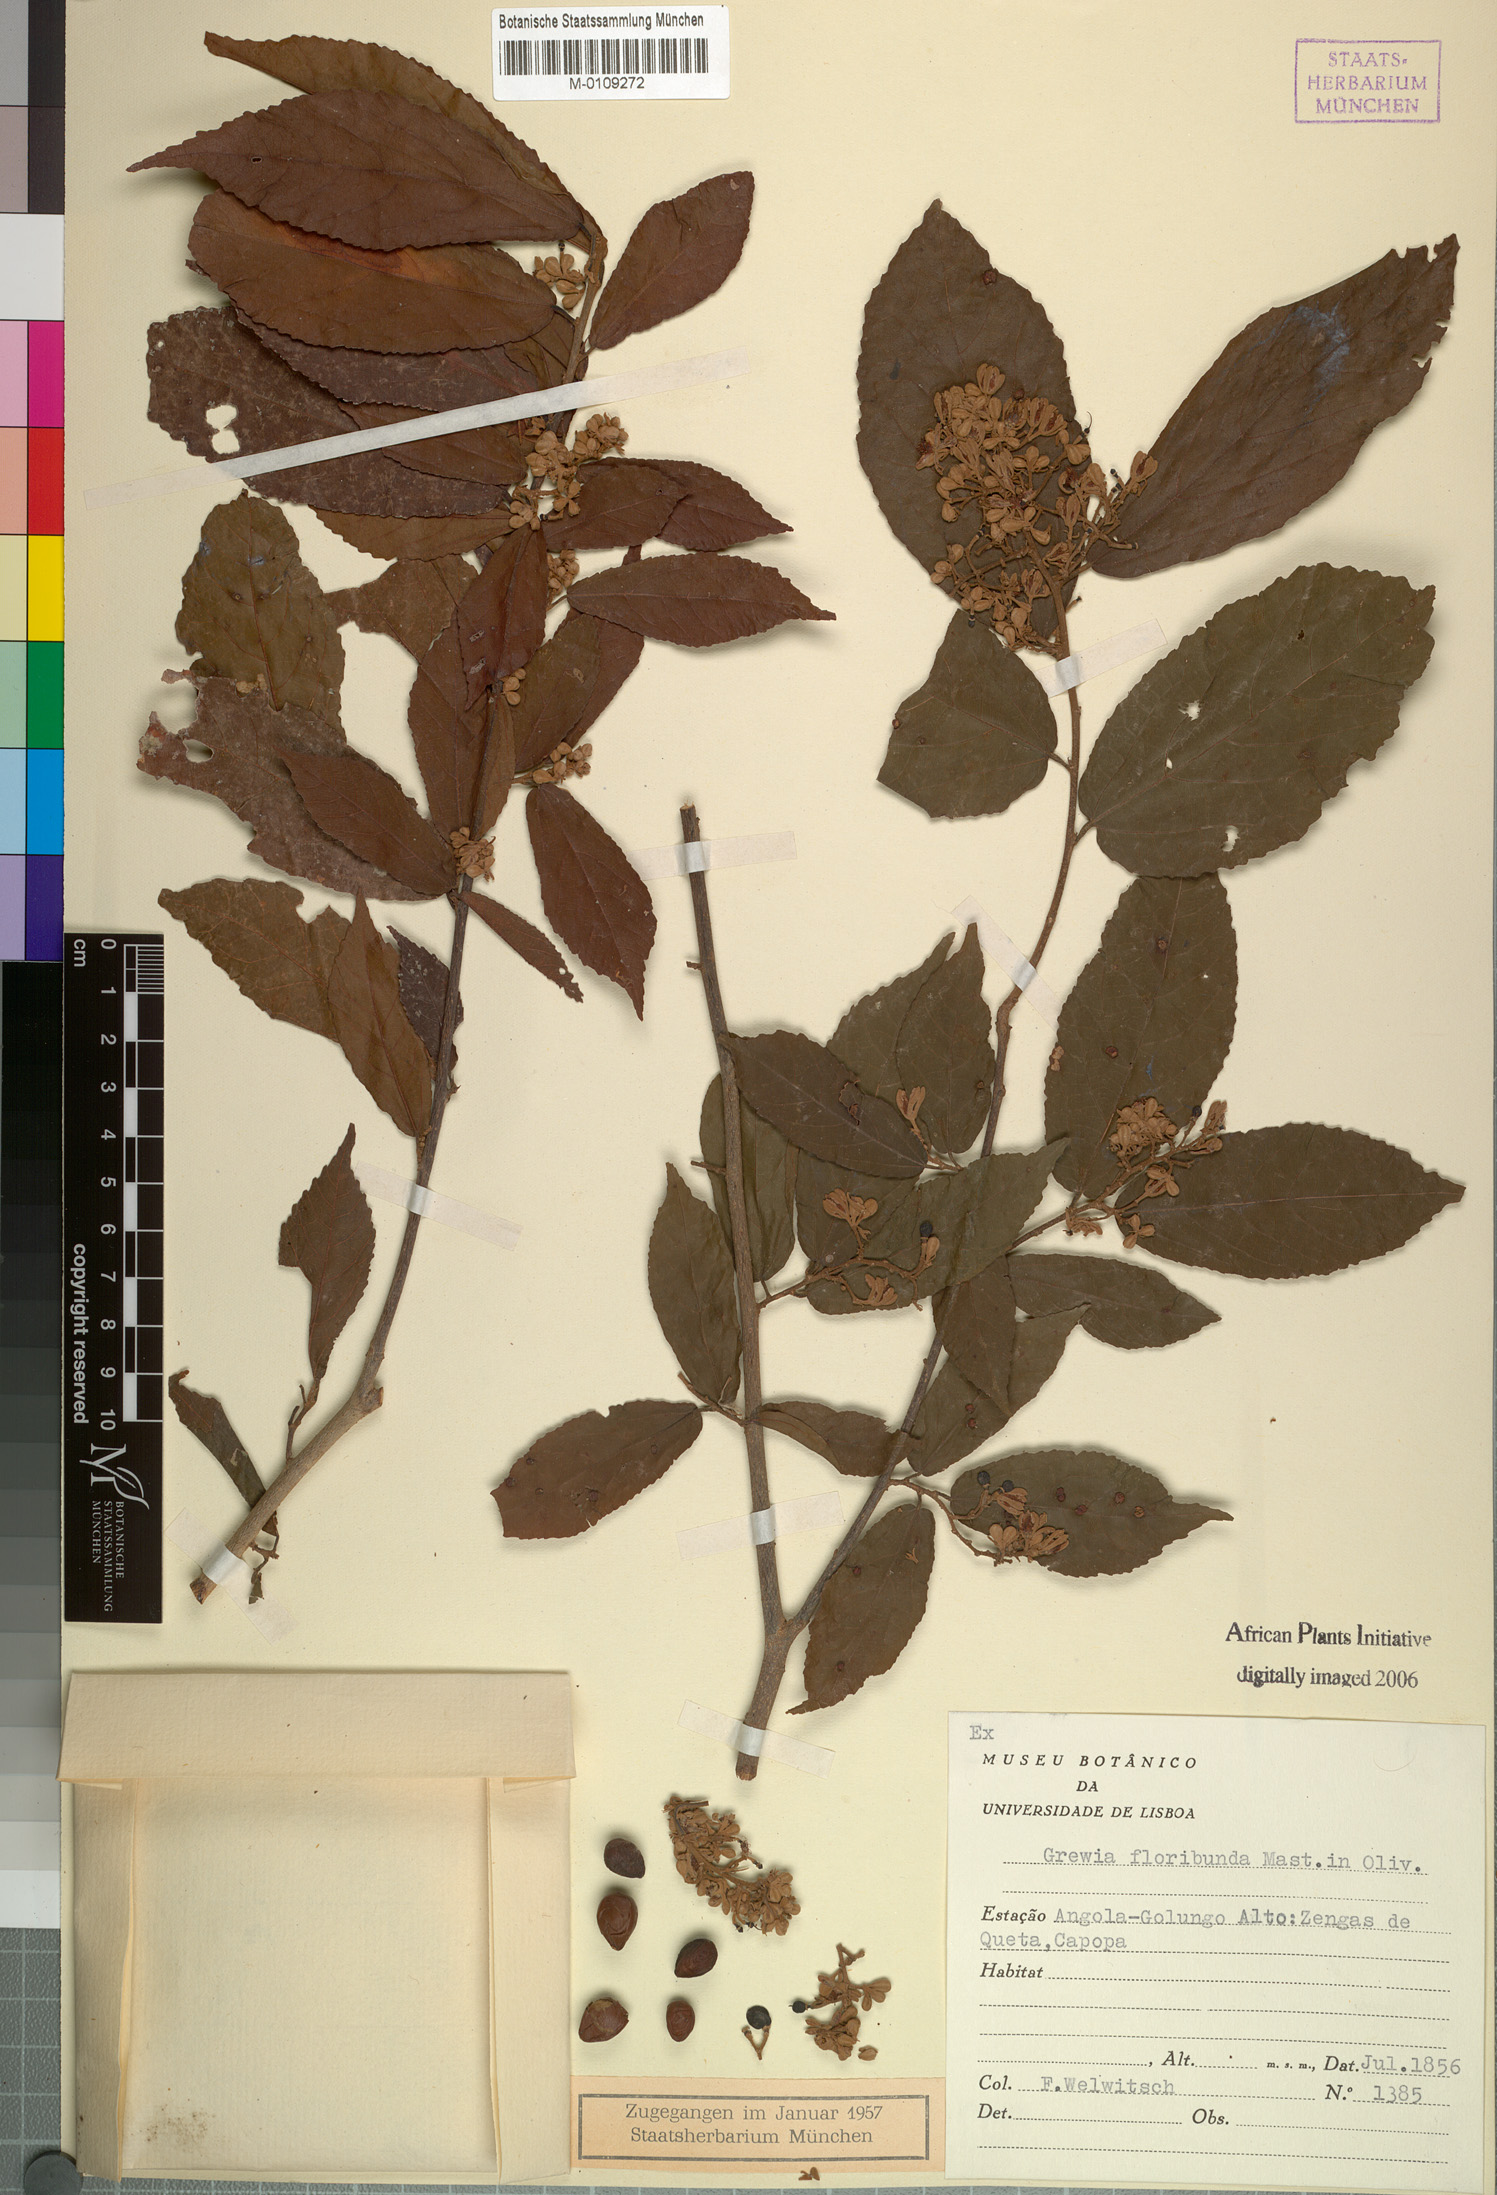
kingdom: Plantae
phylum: Tracheophyta
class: Magnoliopsida
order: Malvales
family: Malvaceae
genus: Microcos
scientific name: Microcos floribunda
